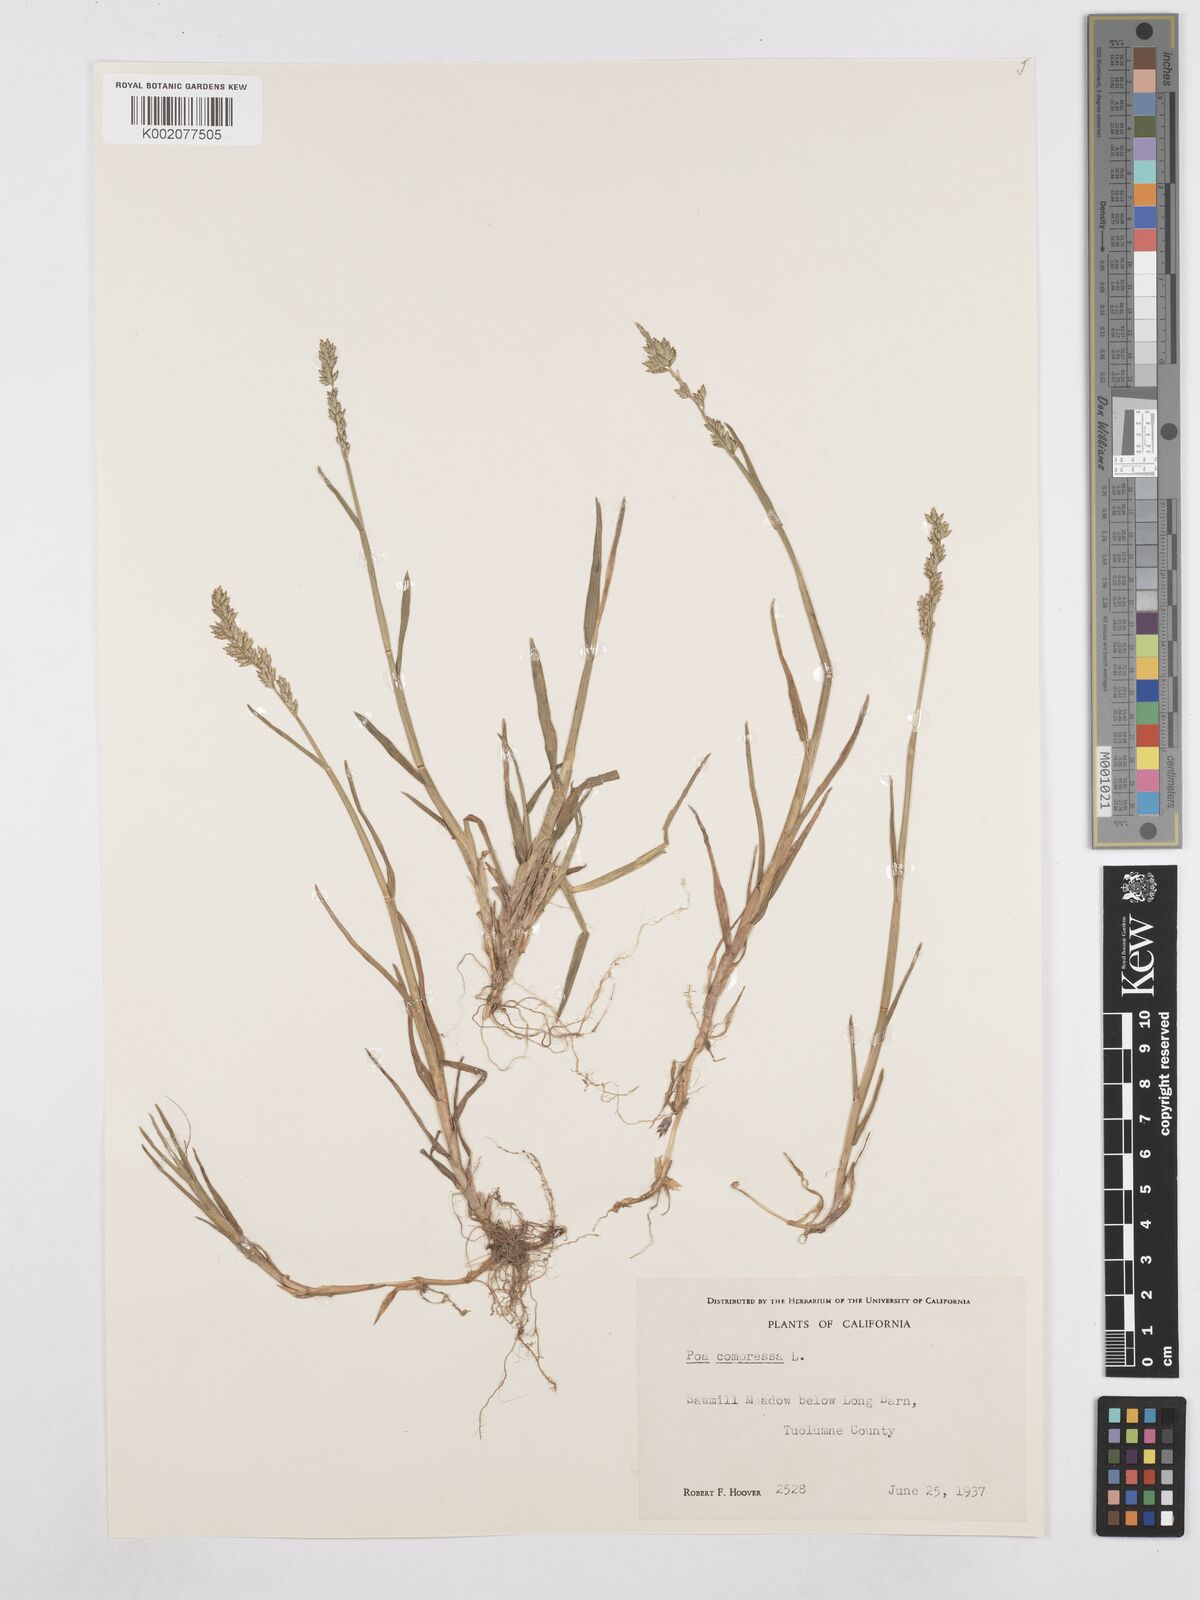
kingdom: Plantae
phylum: Tracheophyta
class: Liliopsida
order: Poales
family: Poaceae
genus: Poa
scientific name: Poa compressa
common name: Canada bluegrass
